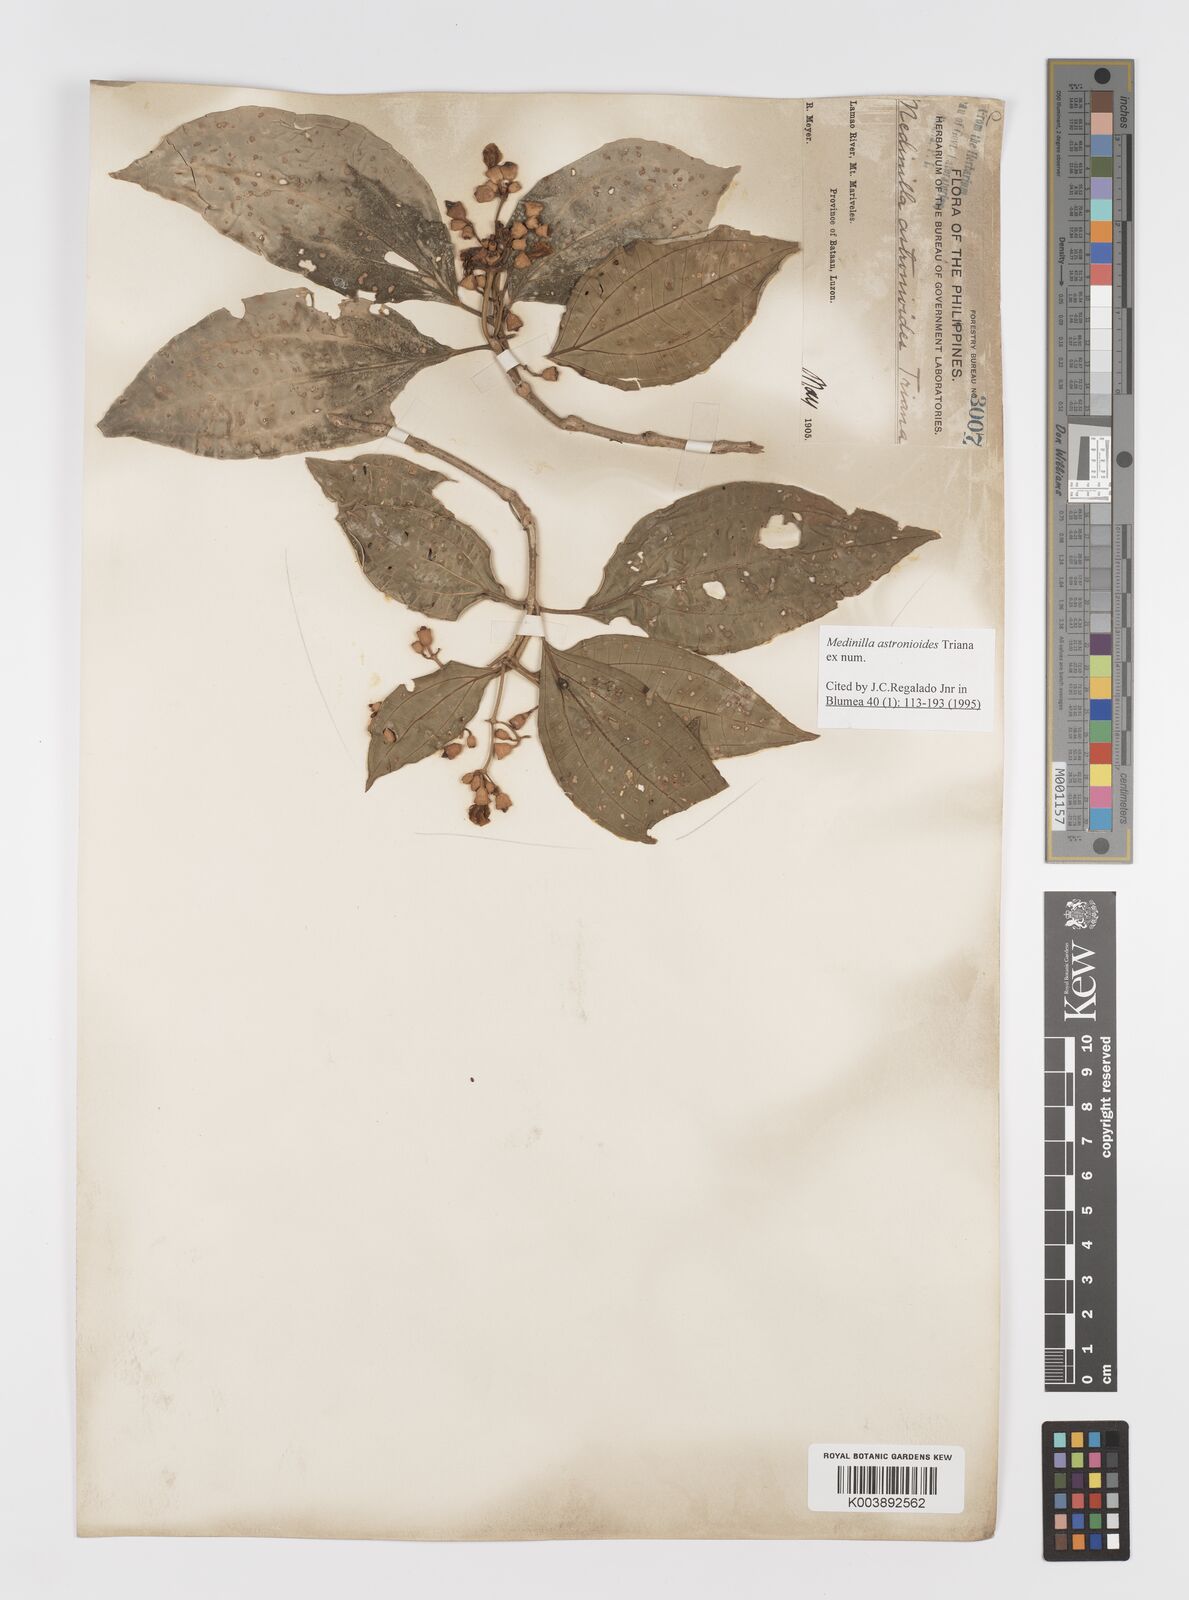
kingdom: Plantae
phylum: Tracheophyta
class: Magnoliopsida
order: Myrtales
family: Melastomataceae
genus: Medinilla
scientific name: Medinilla astronioides
